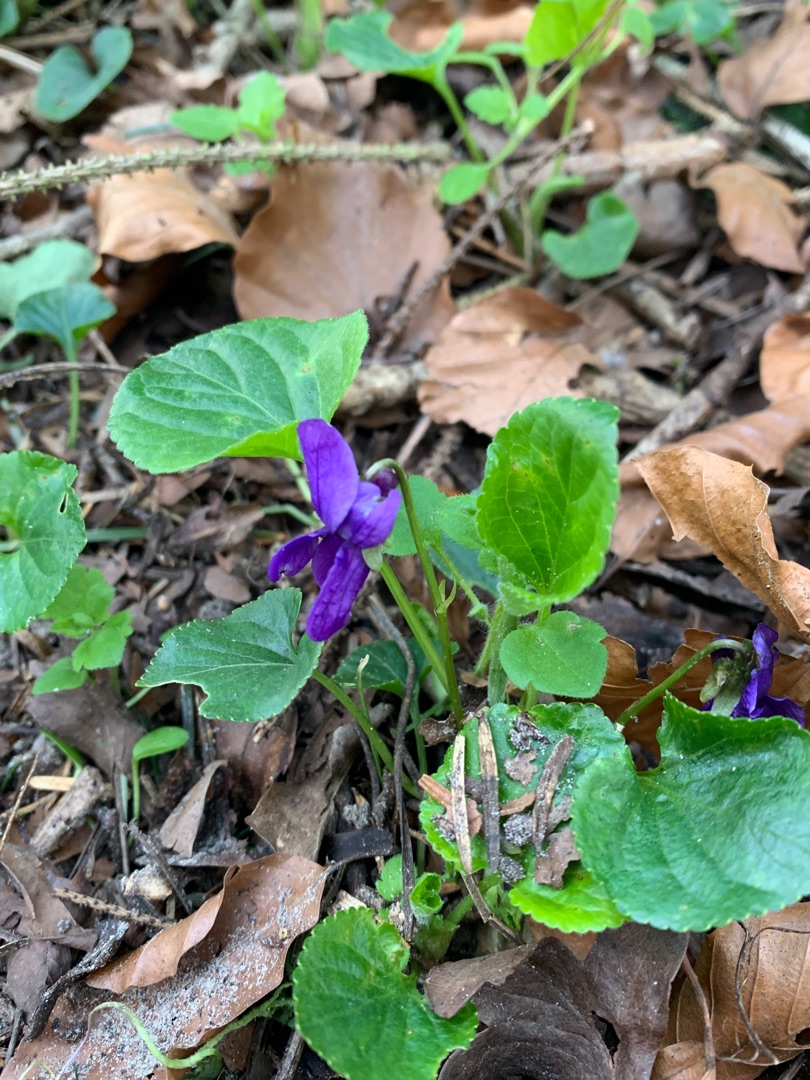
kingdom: Plantae
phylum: Tracheophyta
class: Magnoliopsida
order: Malpighiales
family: Violaceae
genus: Viola
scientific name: Viola odorata
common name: Marts-viol
